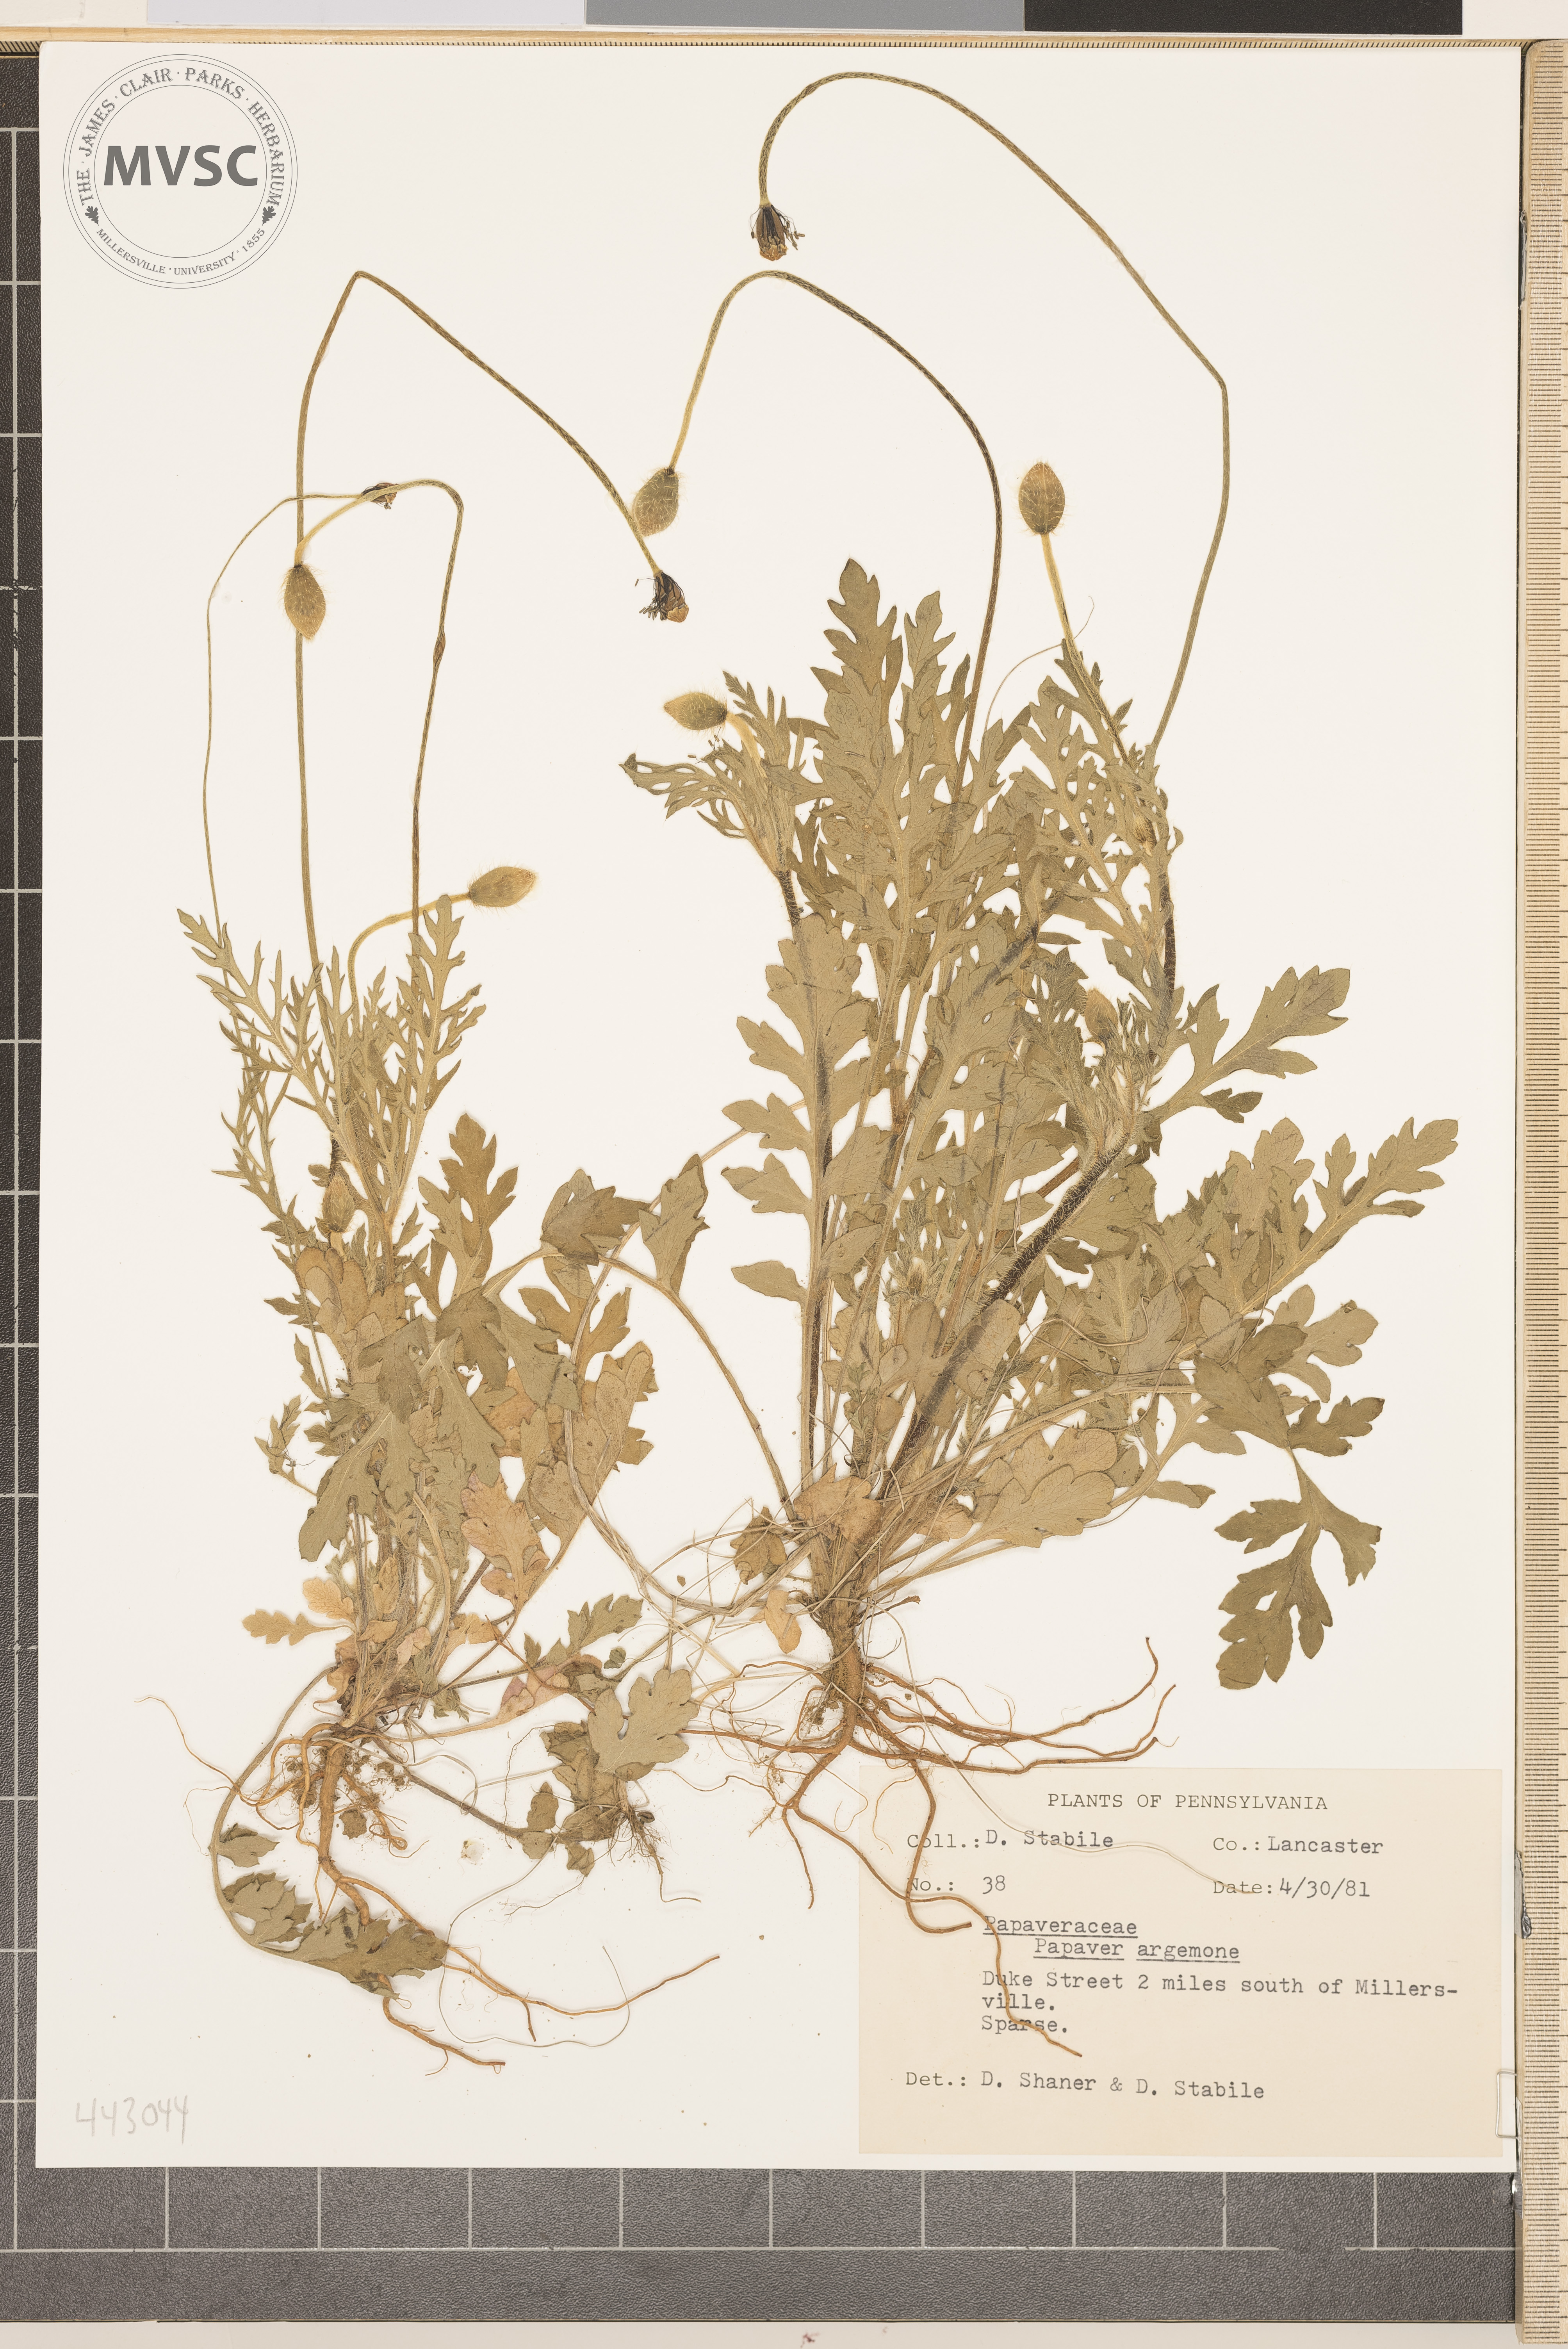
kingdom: Plantae
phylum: Tracheophyta
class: Magnoliopsida
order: Ranunculales
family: Papaveraceae
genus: Papaver
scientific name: Papaver dubium
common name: Long-headed poppy
